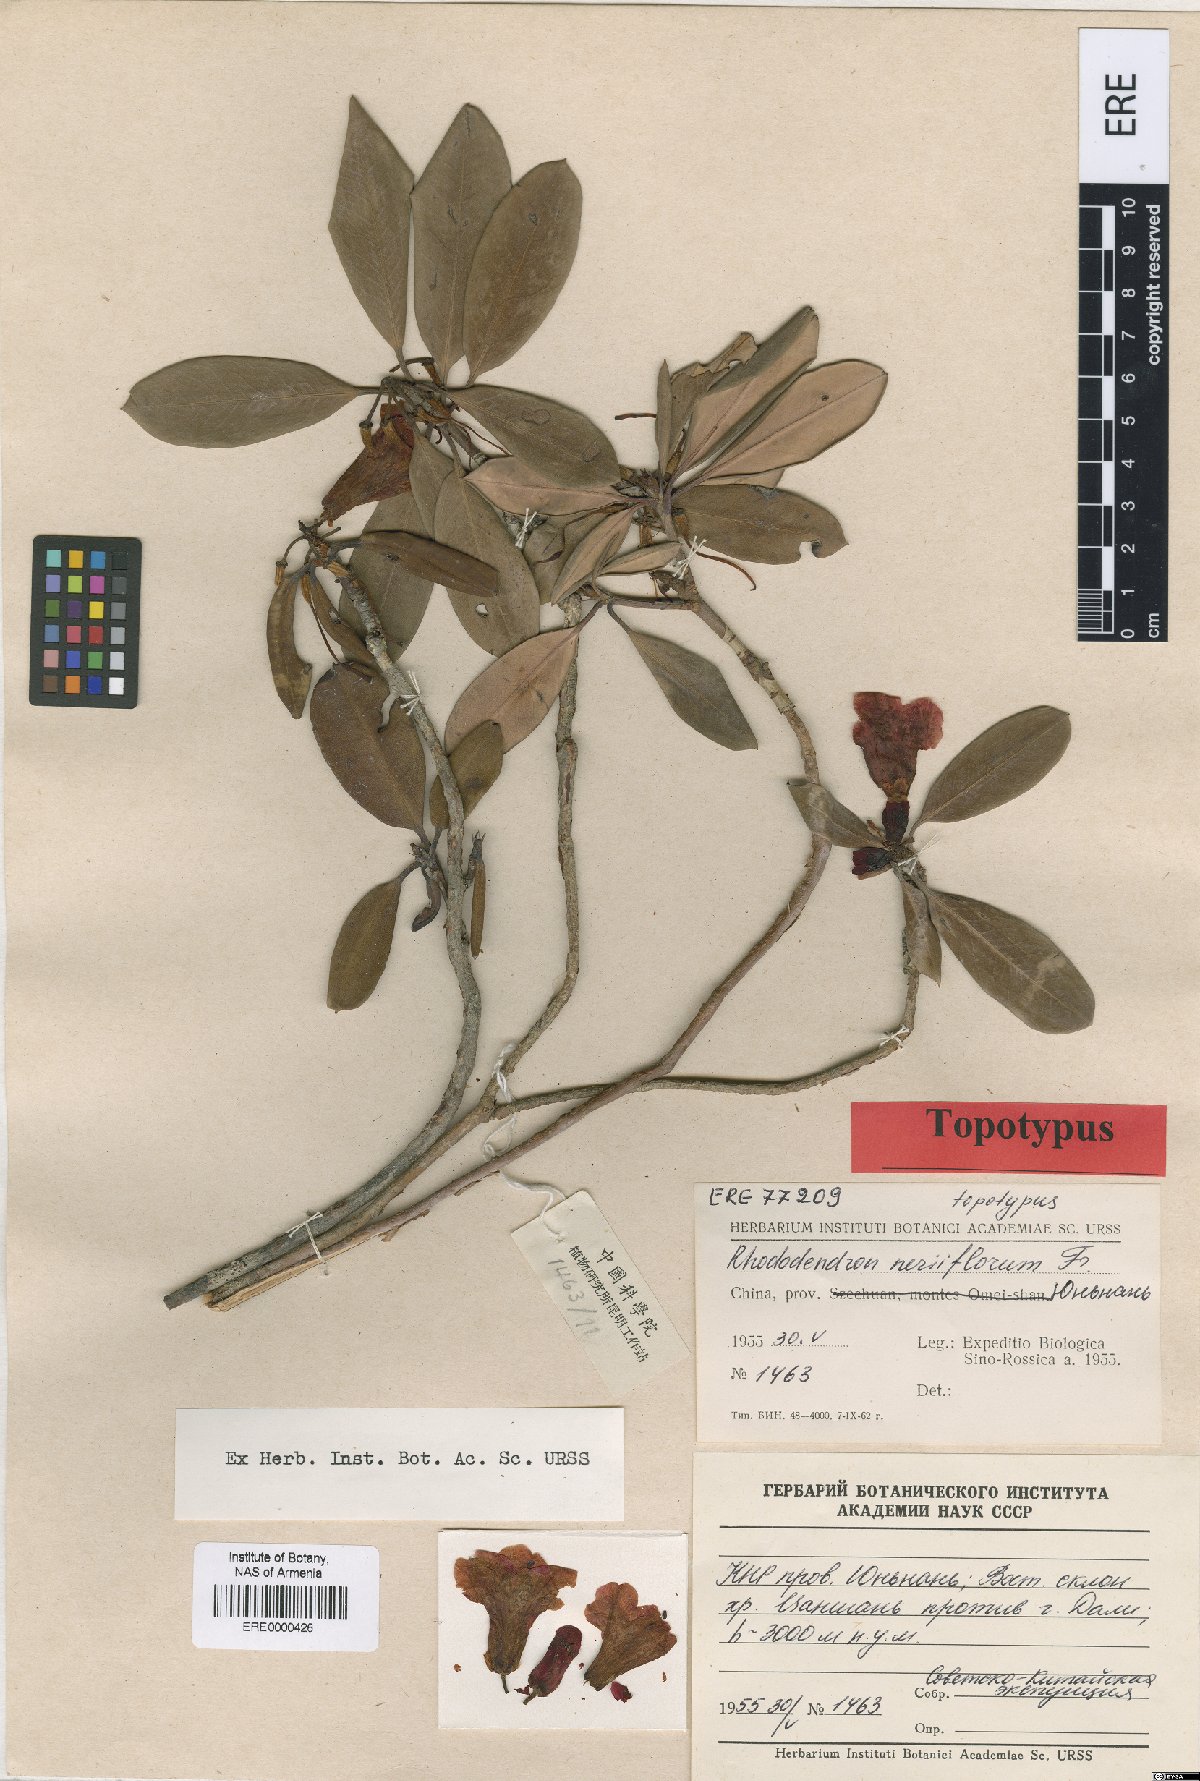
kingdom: Plantae
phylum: Tracheophyta
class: Magnoliopsida
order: Ericales
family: Ericaceae
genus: Rhododendron
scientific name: Rhododendron neriiflorum
